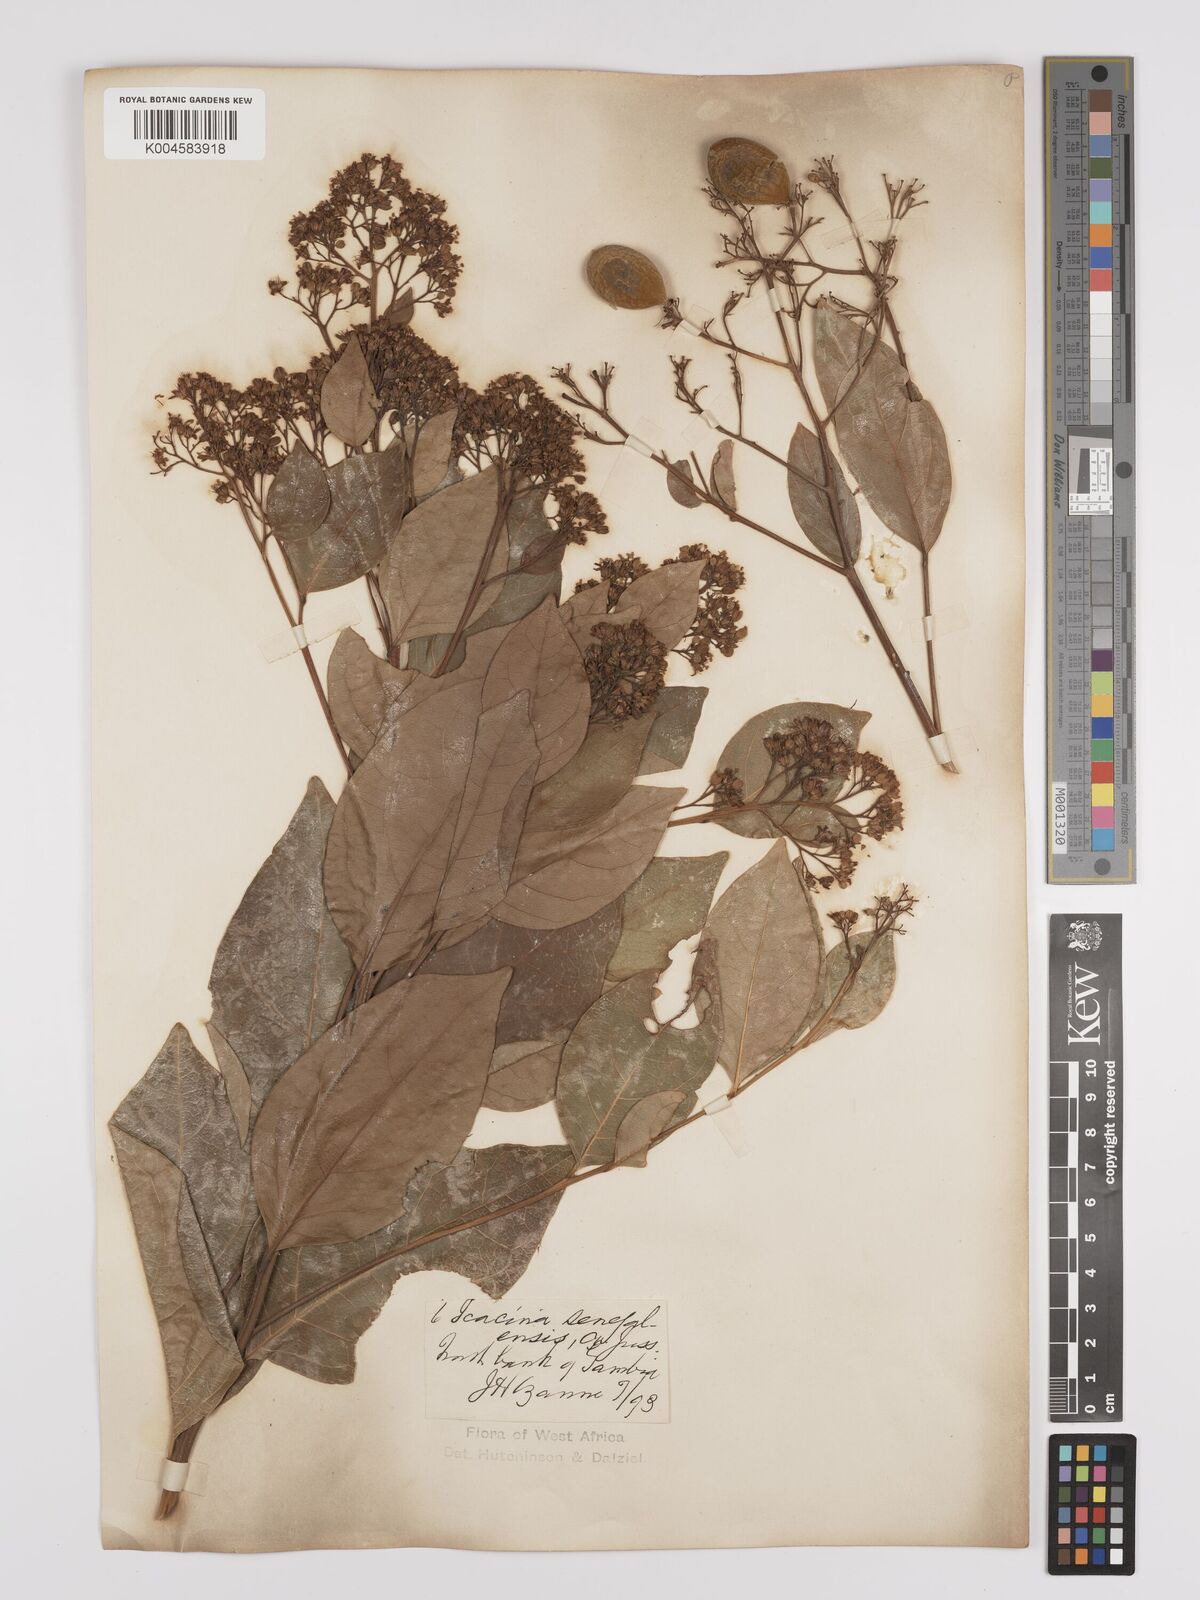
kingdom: Plantae
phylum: Tracheophyta
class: Magnoliopsida
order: Icacinales
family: Icacinaceae
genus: Icacina
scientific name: Icacina oliviformis
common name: False yam
